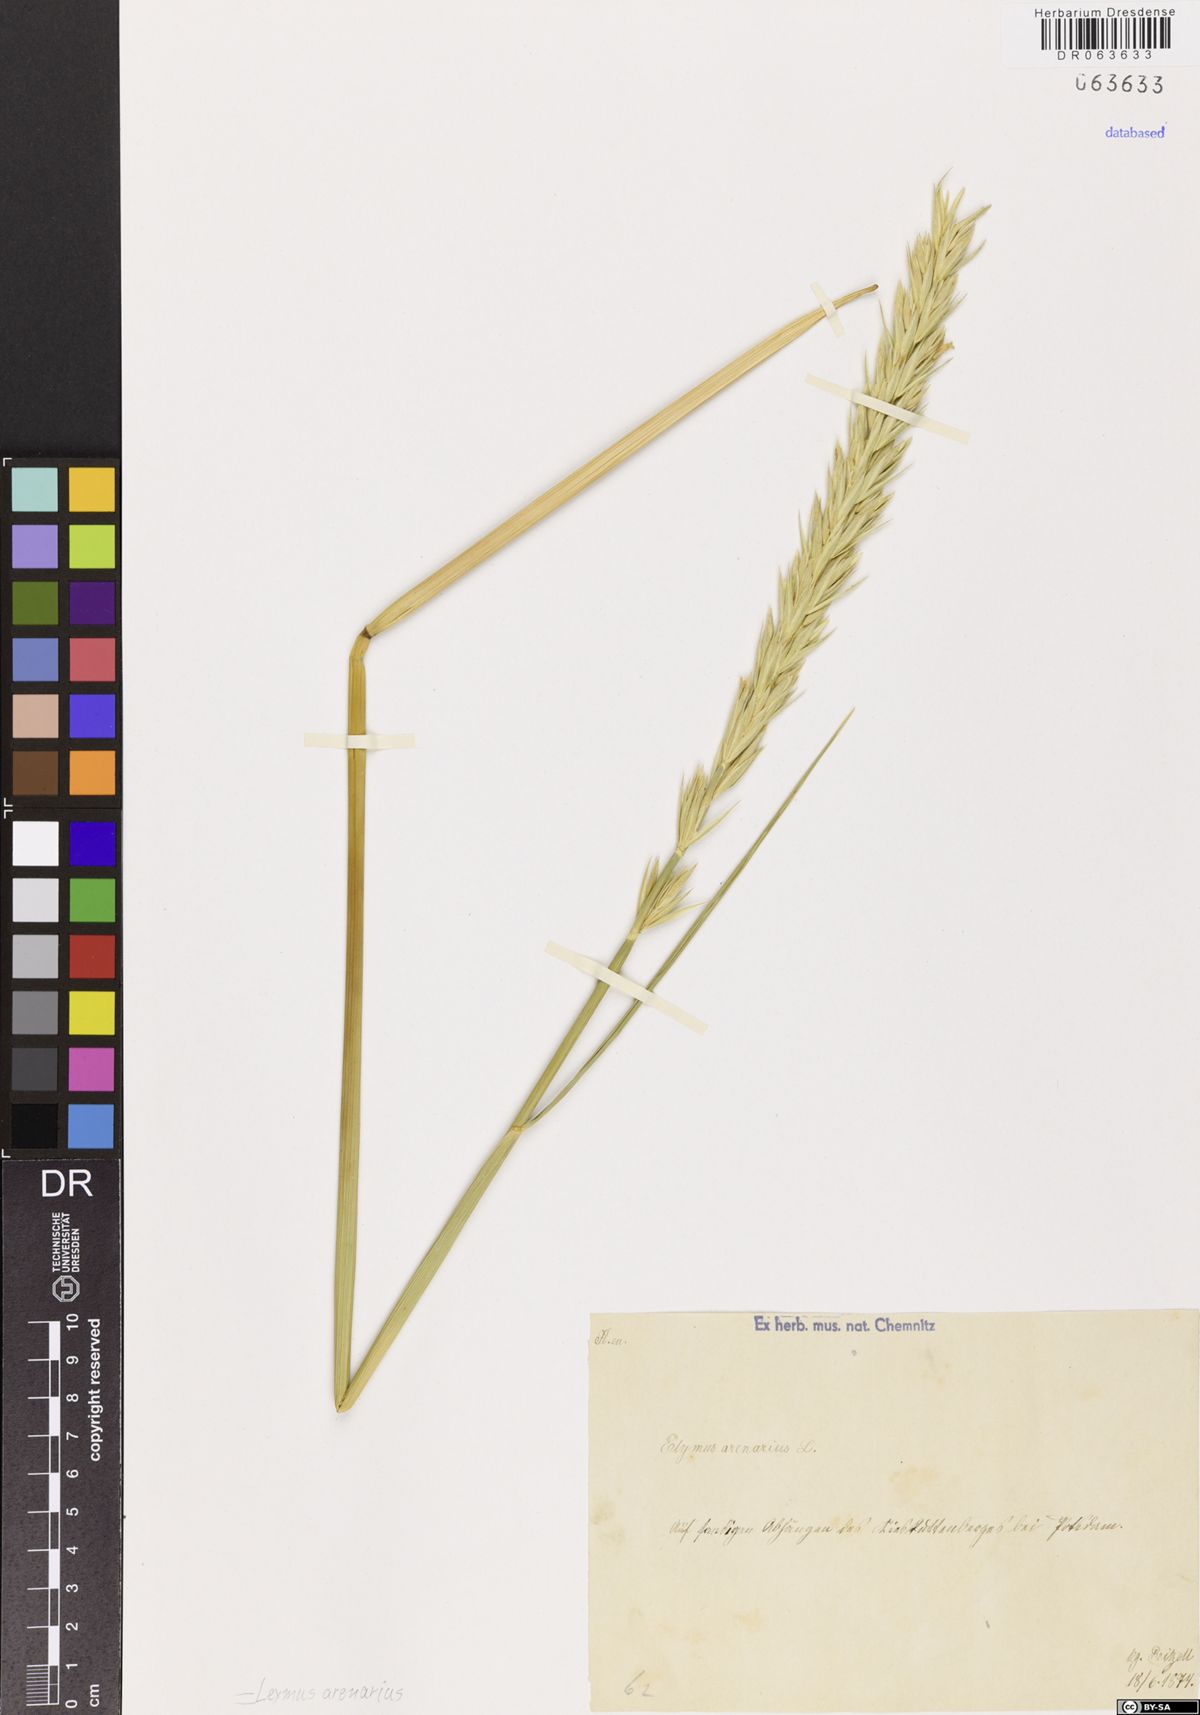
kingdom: Plantae
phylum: Tracheophyta
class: Liliopsida
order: Poales
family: Poaceae
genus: Leymus
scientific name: Leymus arenarius
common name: Lyme-grass
